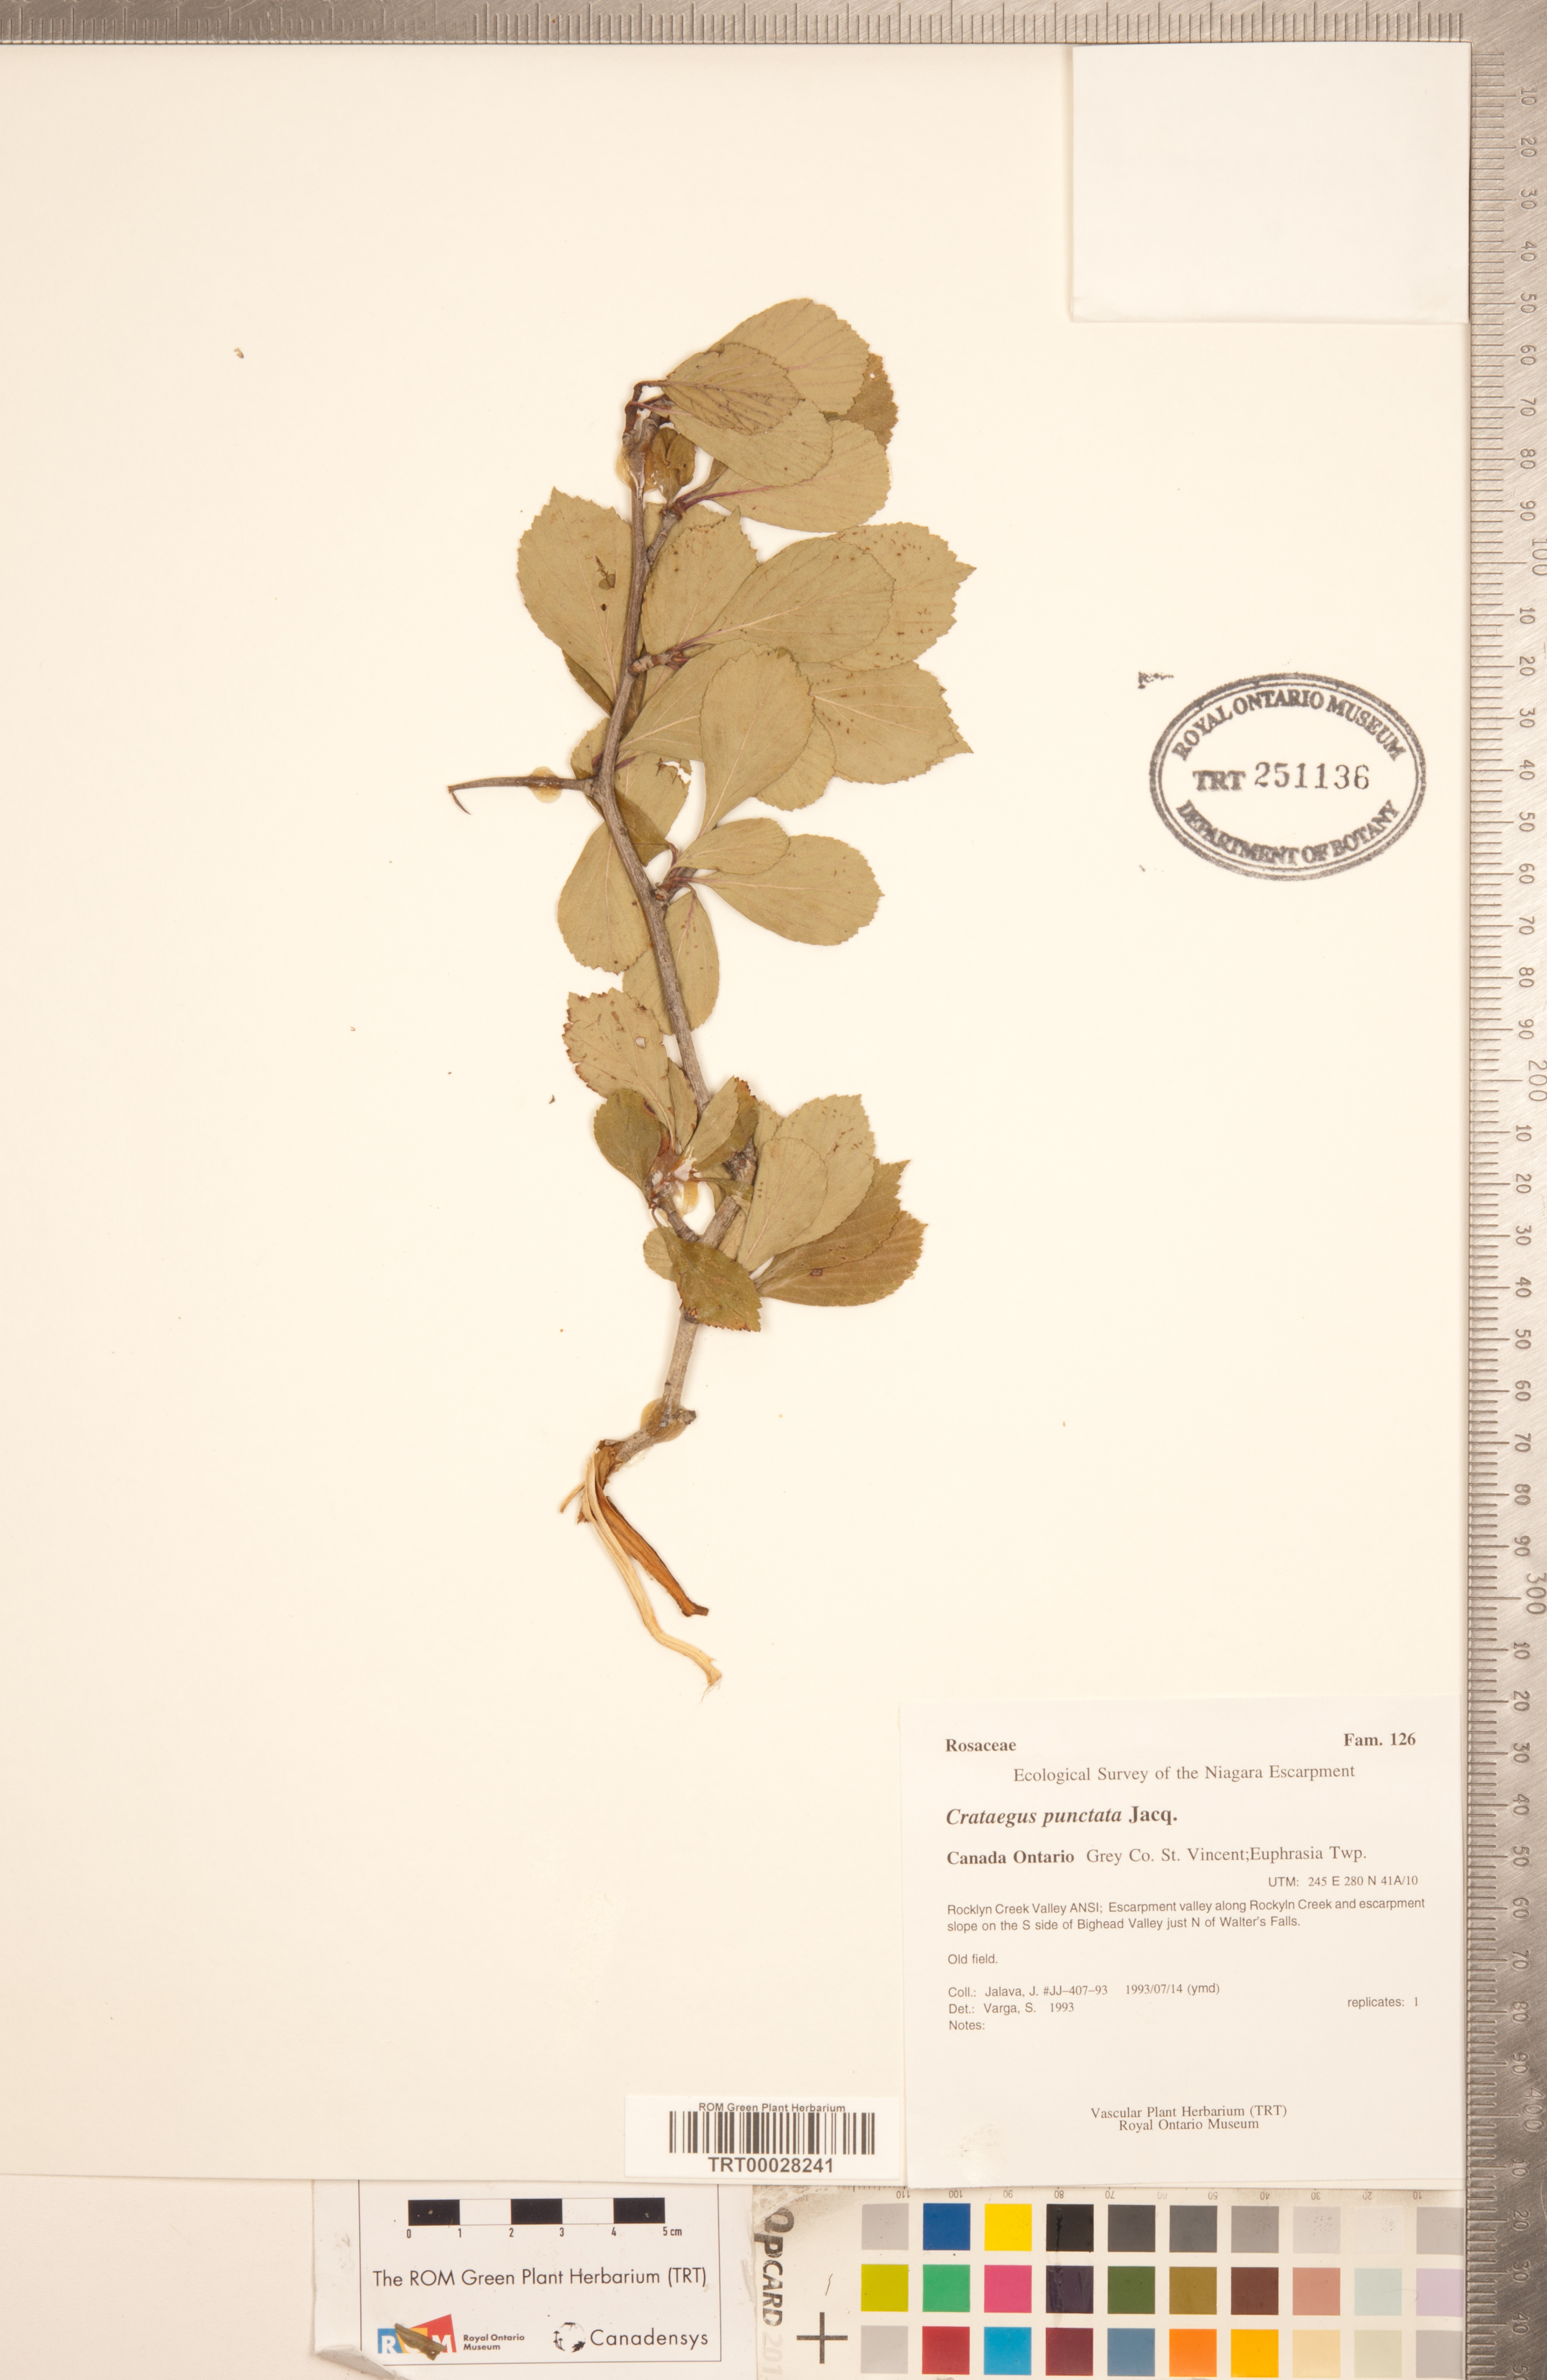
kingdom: Plantae
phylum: Tracheophyta
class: Magnoliopsida
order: Rosales
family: Rosaceae
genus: Crataegus
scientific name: Crataegus punctata
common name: Dotted hawthorn
